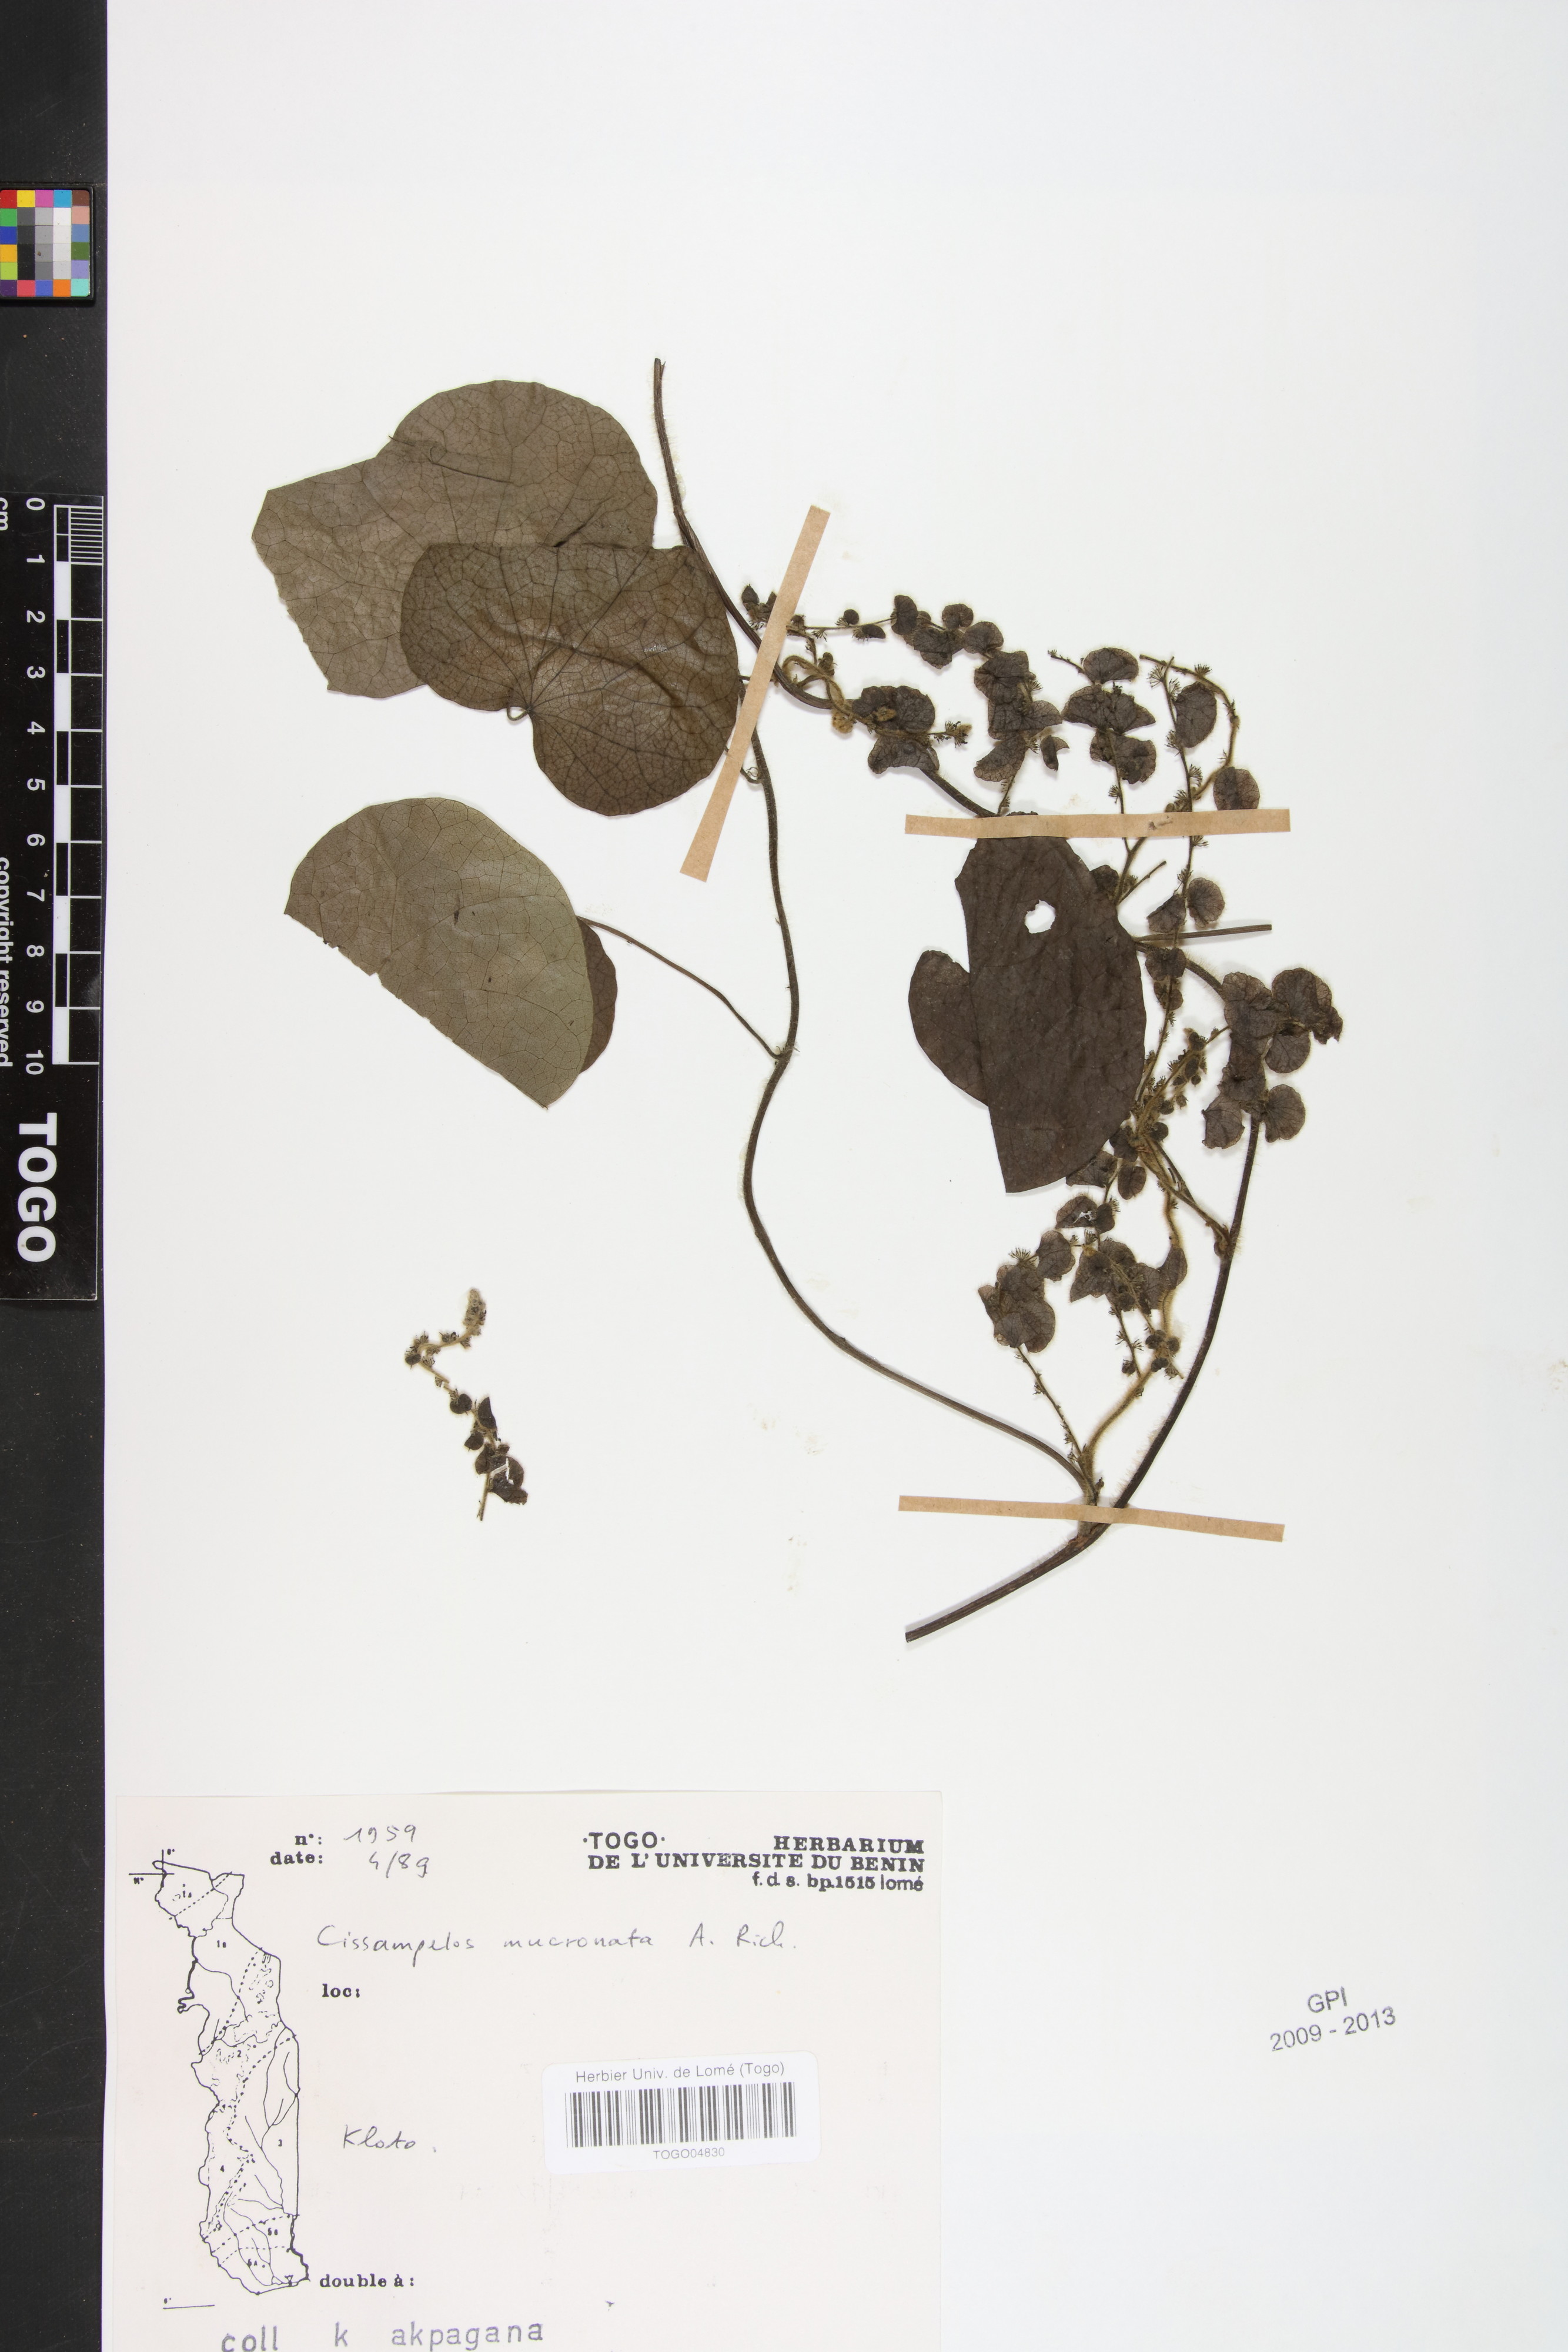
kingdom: Plantae
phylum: Tracheophyta
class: Magnoliopsida
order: Ranunculales
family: Menispermaceae
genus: Cissampelos
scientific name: Cissampelos mucronata
